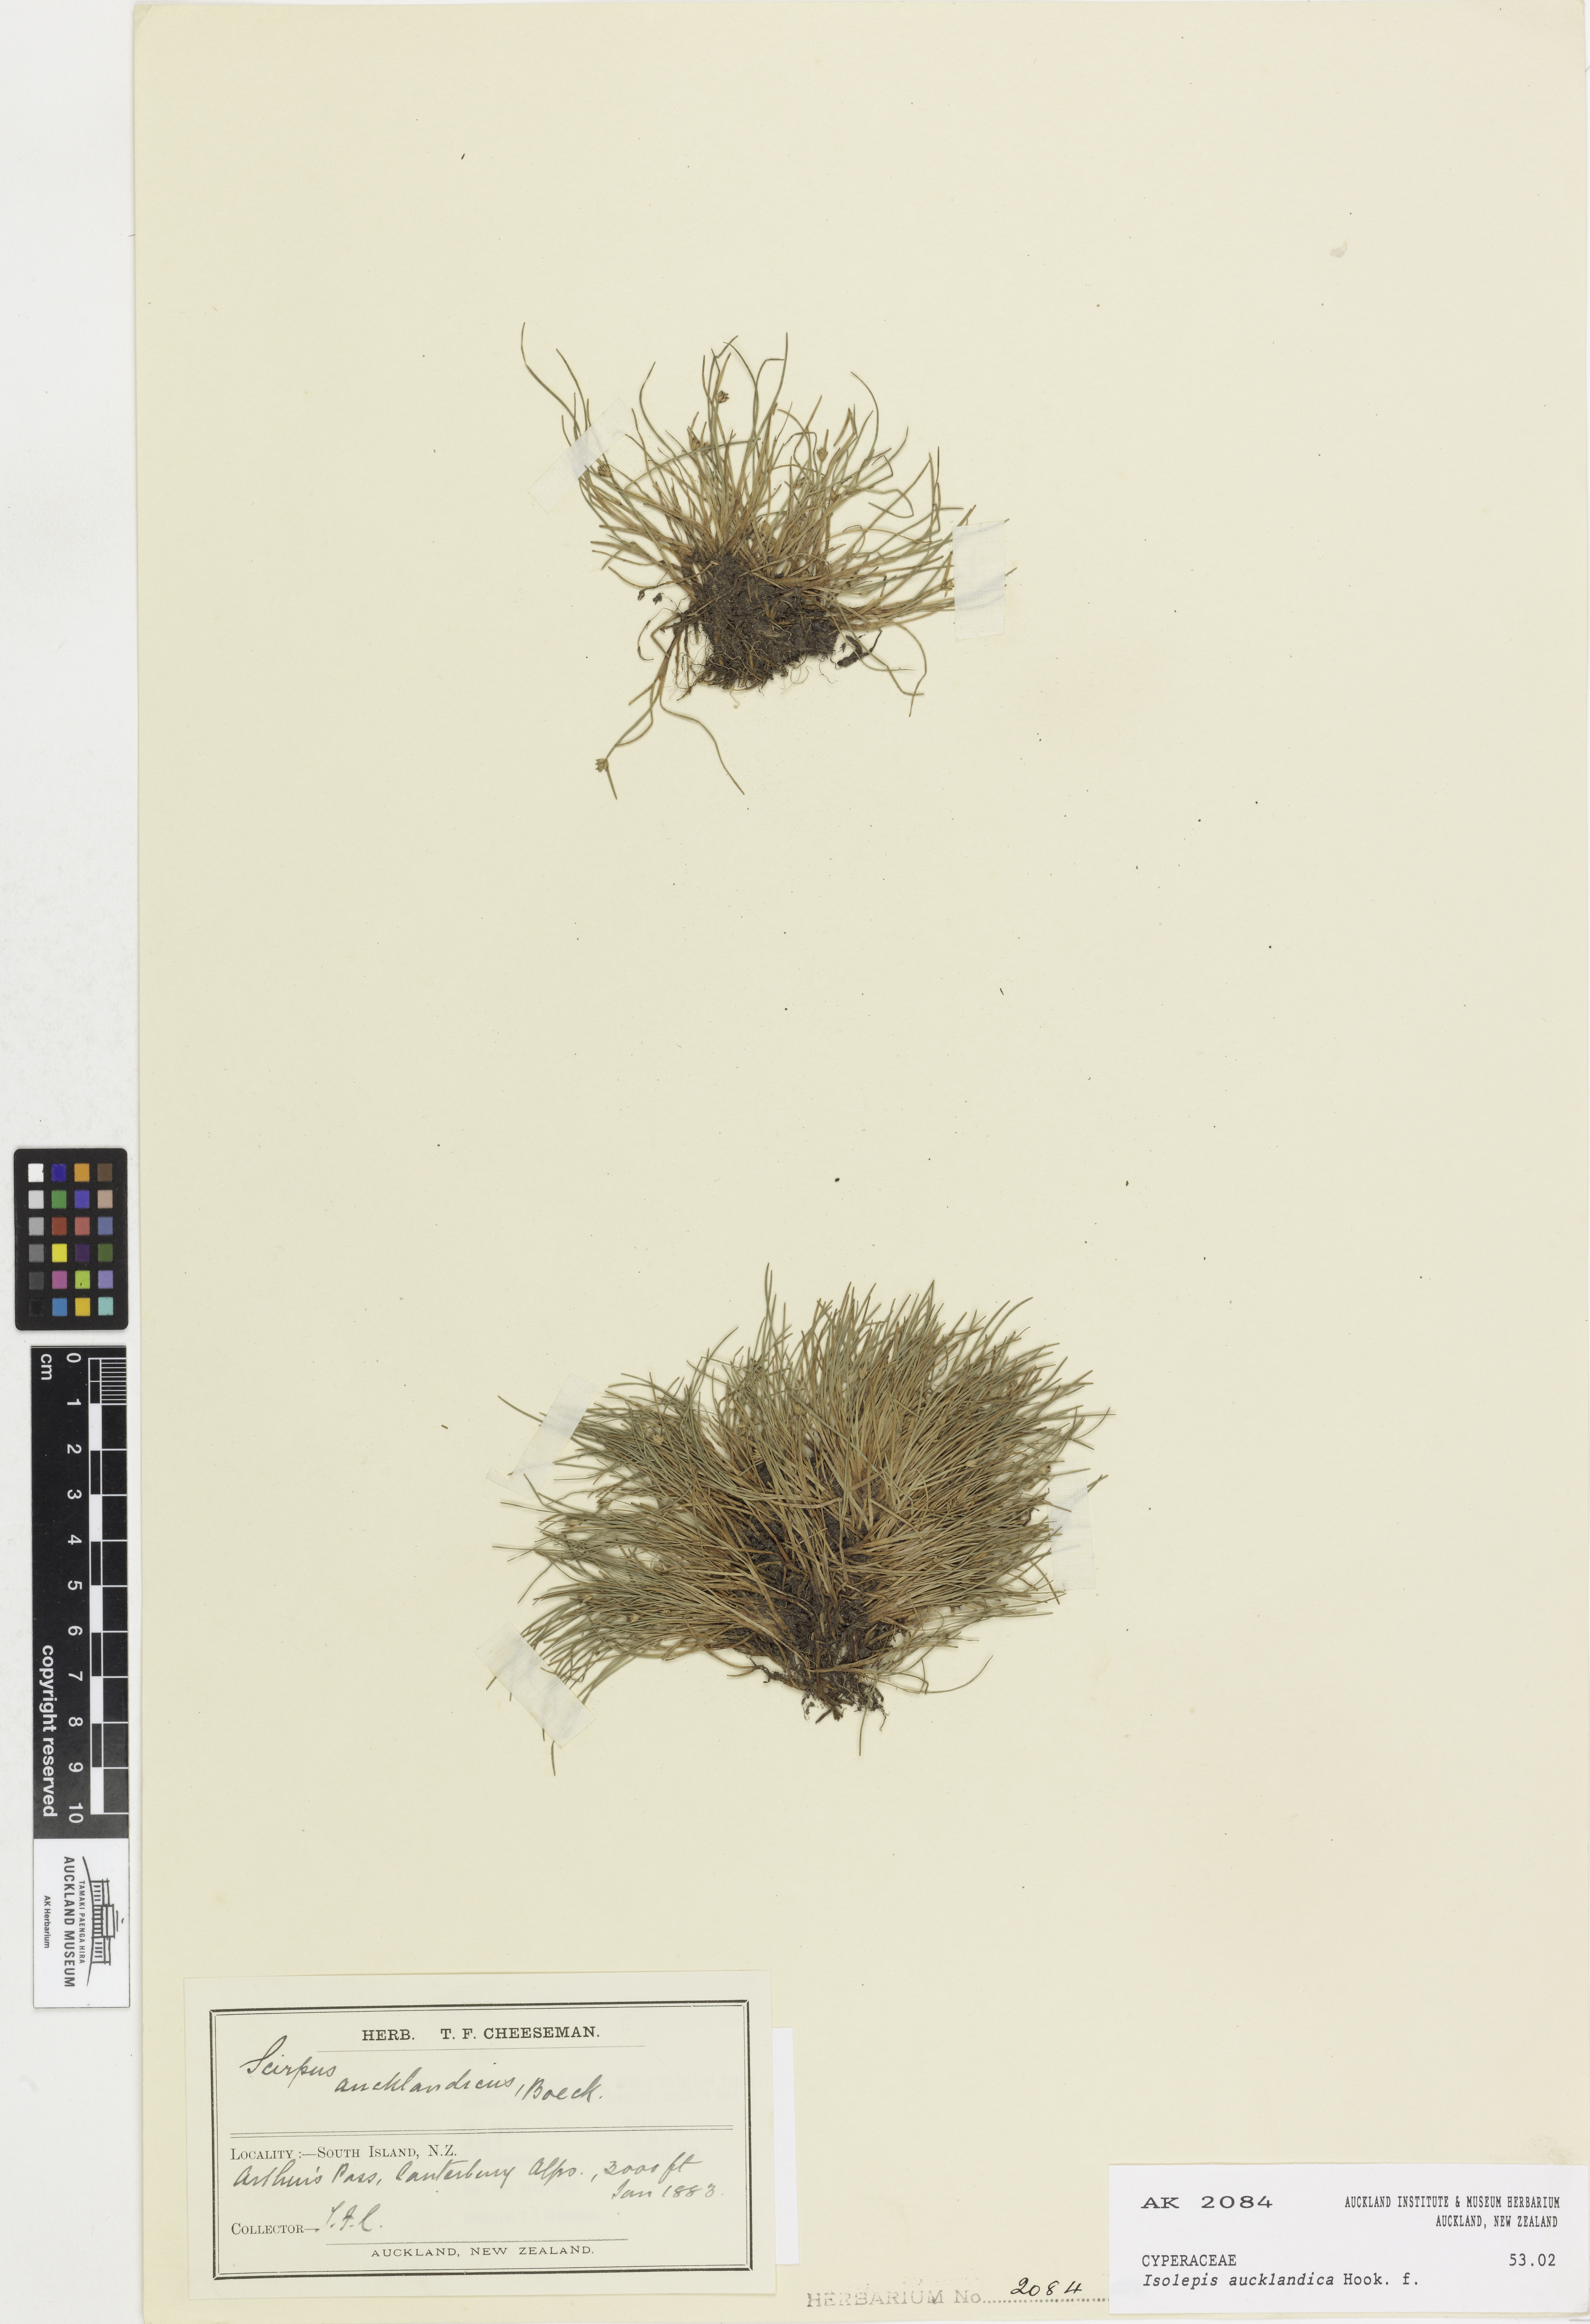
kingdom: Plantae
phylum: Tracheophyta
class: Liliopsida
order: Poales
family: Cyperaceae
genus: Isolepis
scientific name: Isolepis aucklandica
